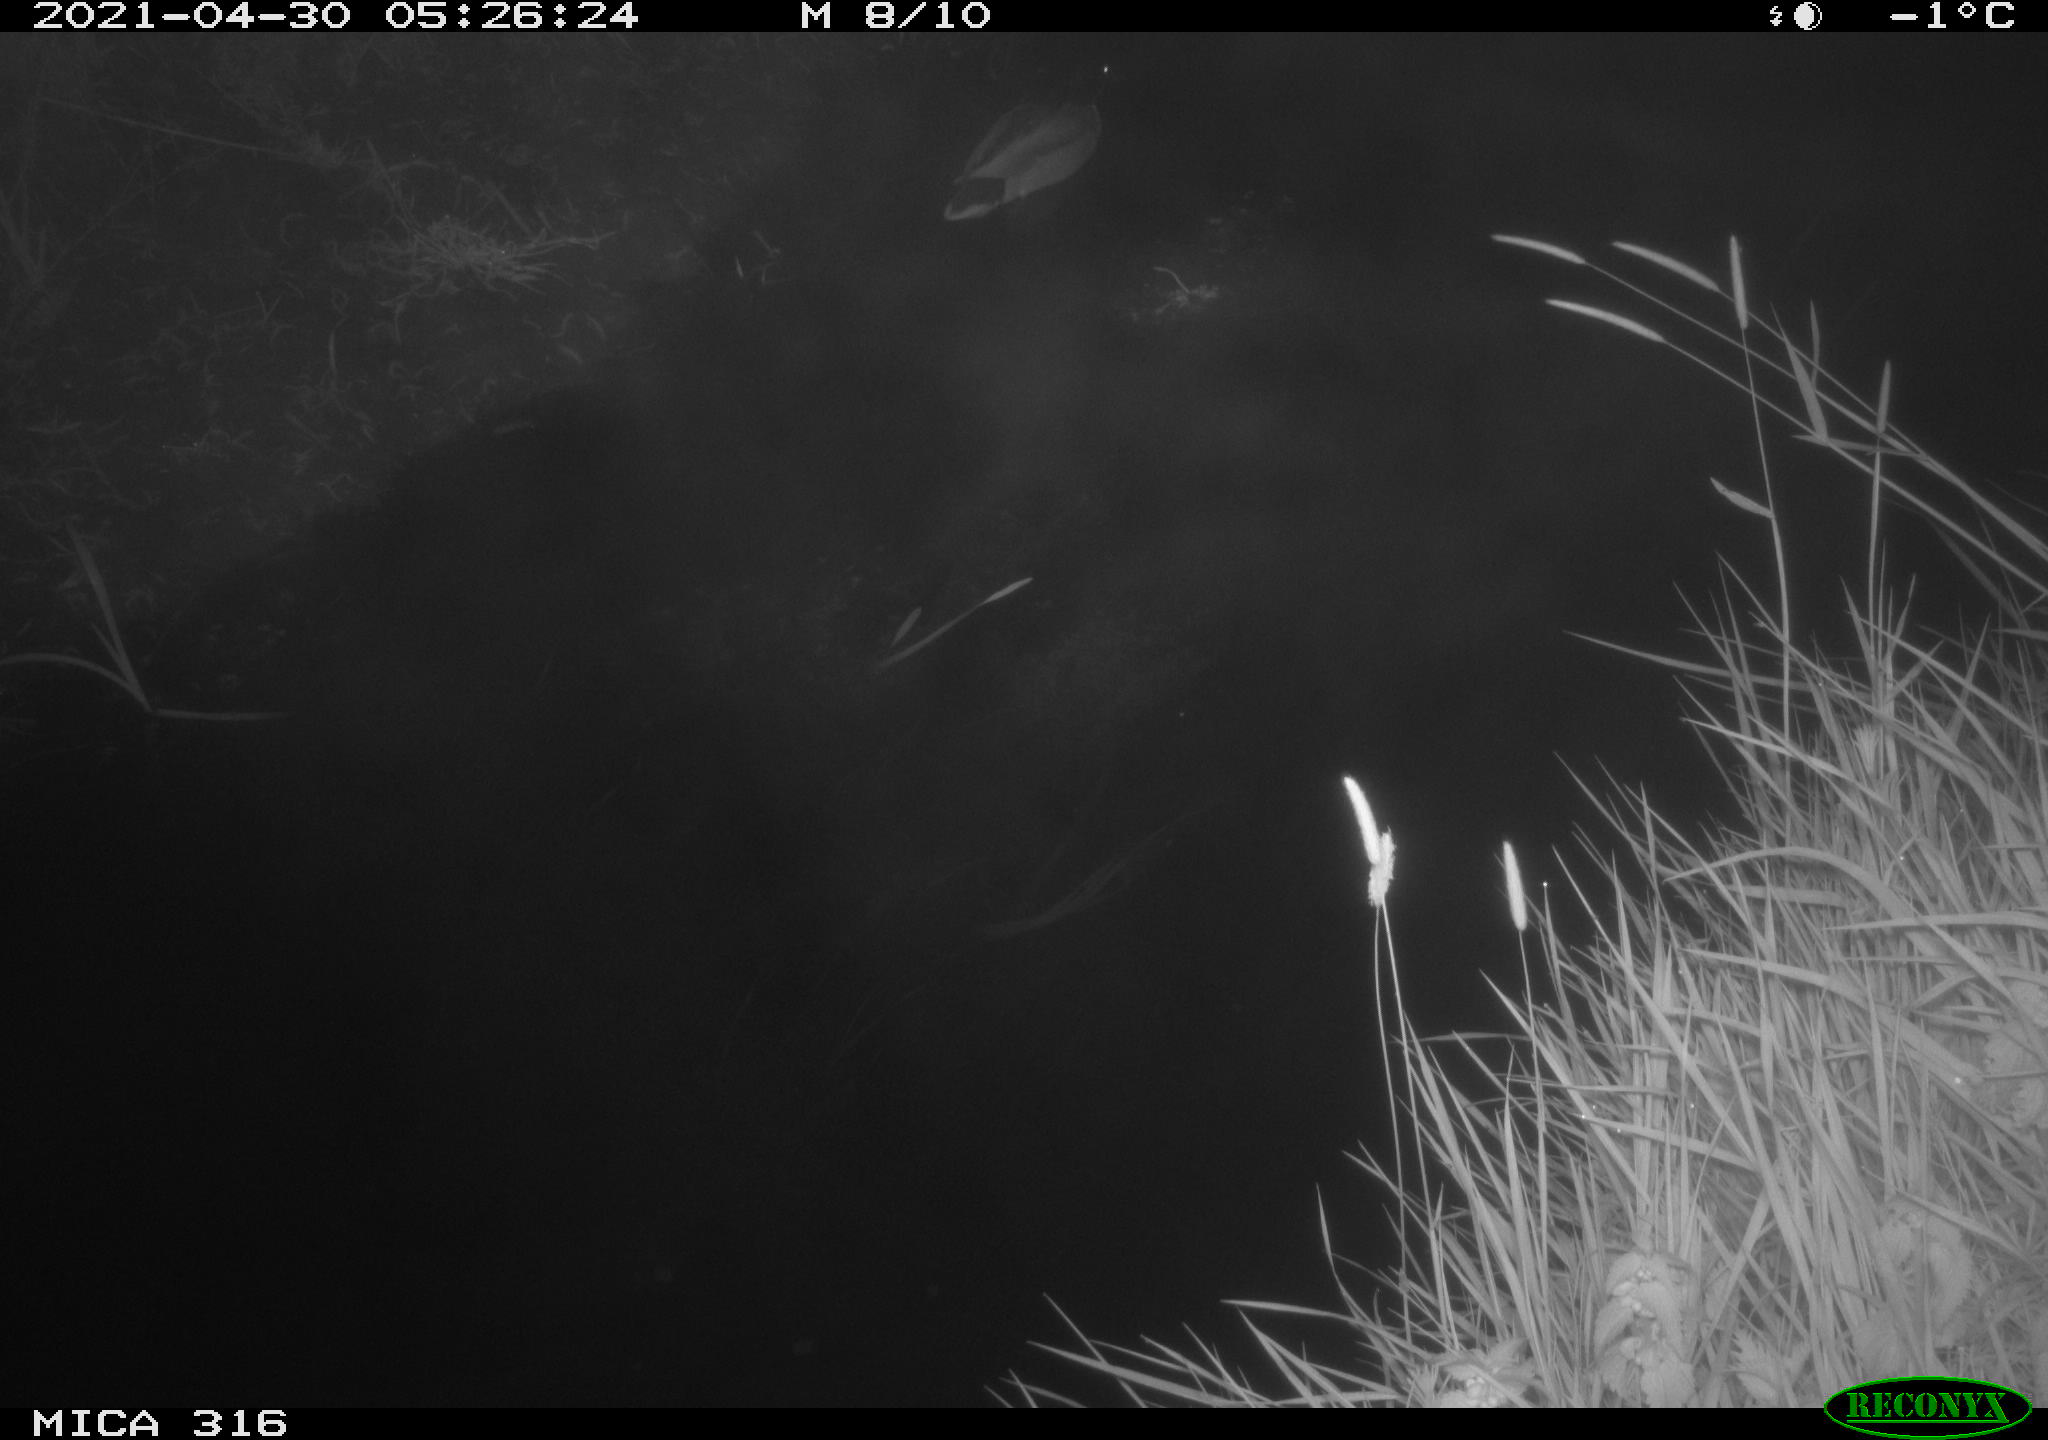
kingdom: Animalia
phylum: Chordata
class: Aves
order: Anseriformes
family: Anatidae
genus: Anas
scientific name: Anas platyrhynchos
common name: Mallard
